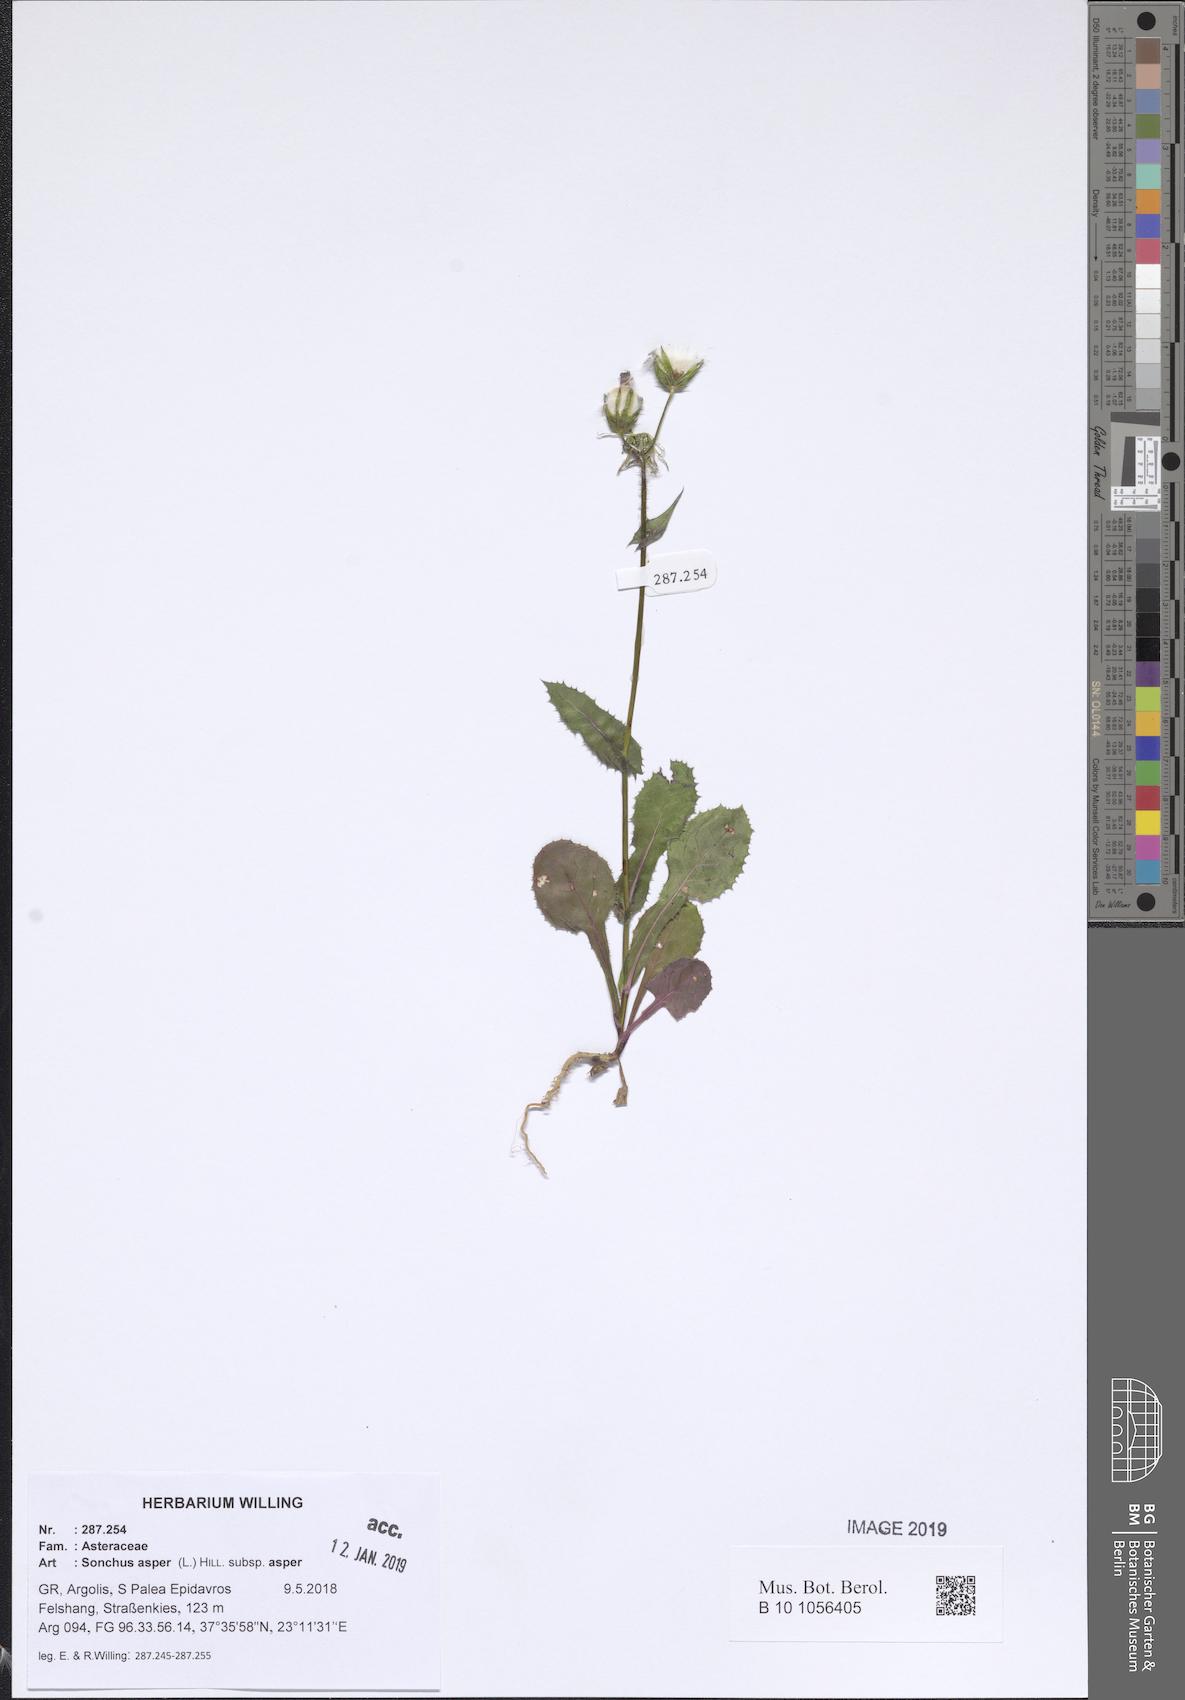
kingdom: Plantae
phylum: Tracheophyta
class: Magnoliopsida
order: Asterales
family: Asteraceae
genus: Sonchus
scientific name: Sonchus asper
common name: Prickly sow-thistle
